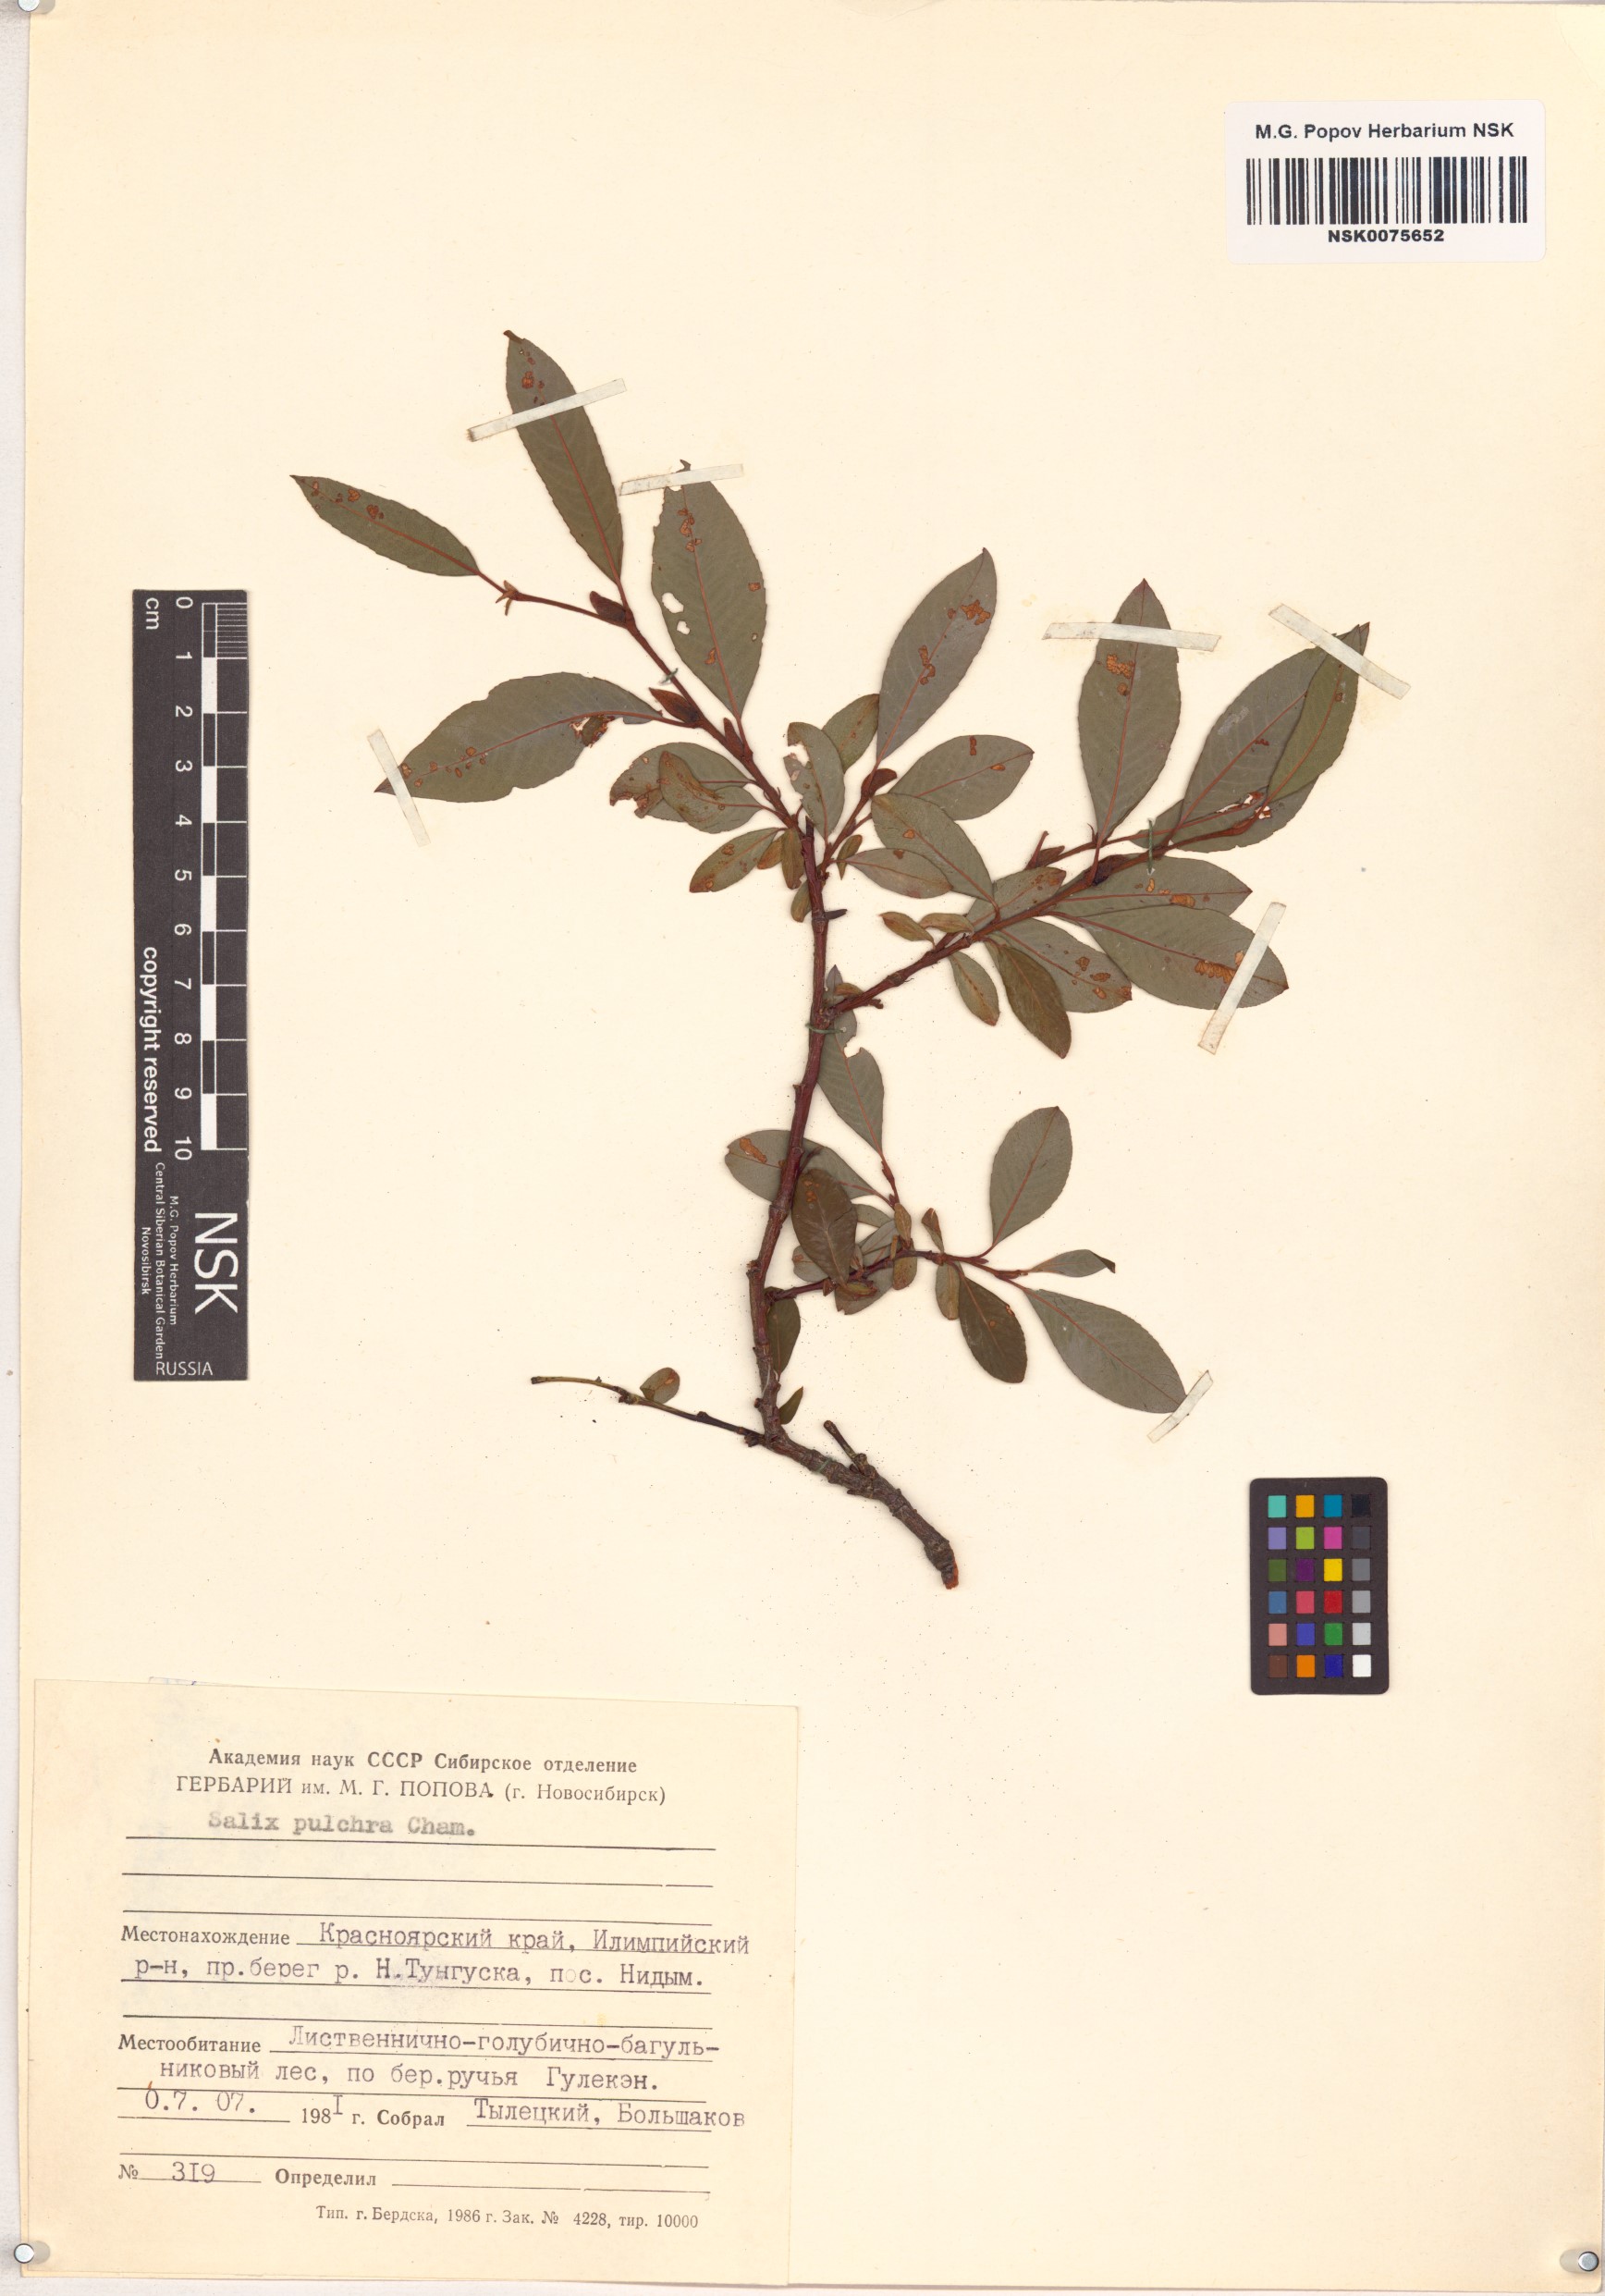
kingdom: Plantae
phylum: Tracheophyta
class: Magnoliopsida
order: Malpighiales
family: Salicaceae
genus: Salix
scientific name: Salix pulchra
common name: Diamond-leaved willow
